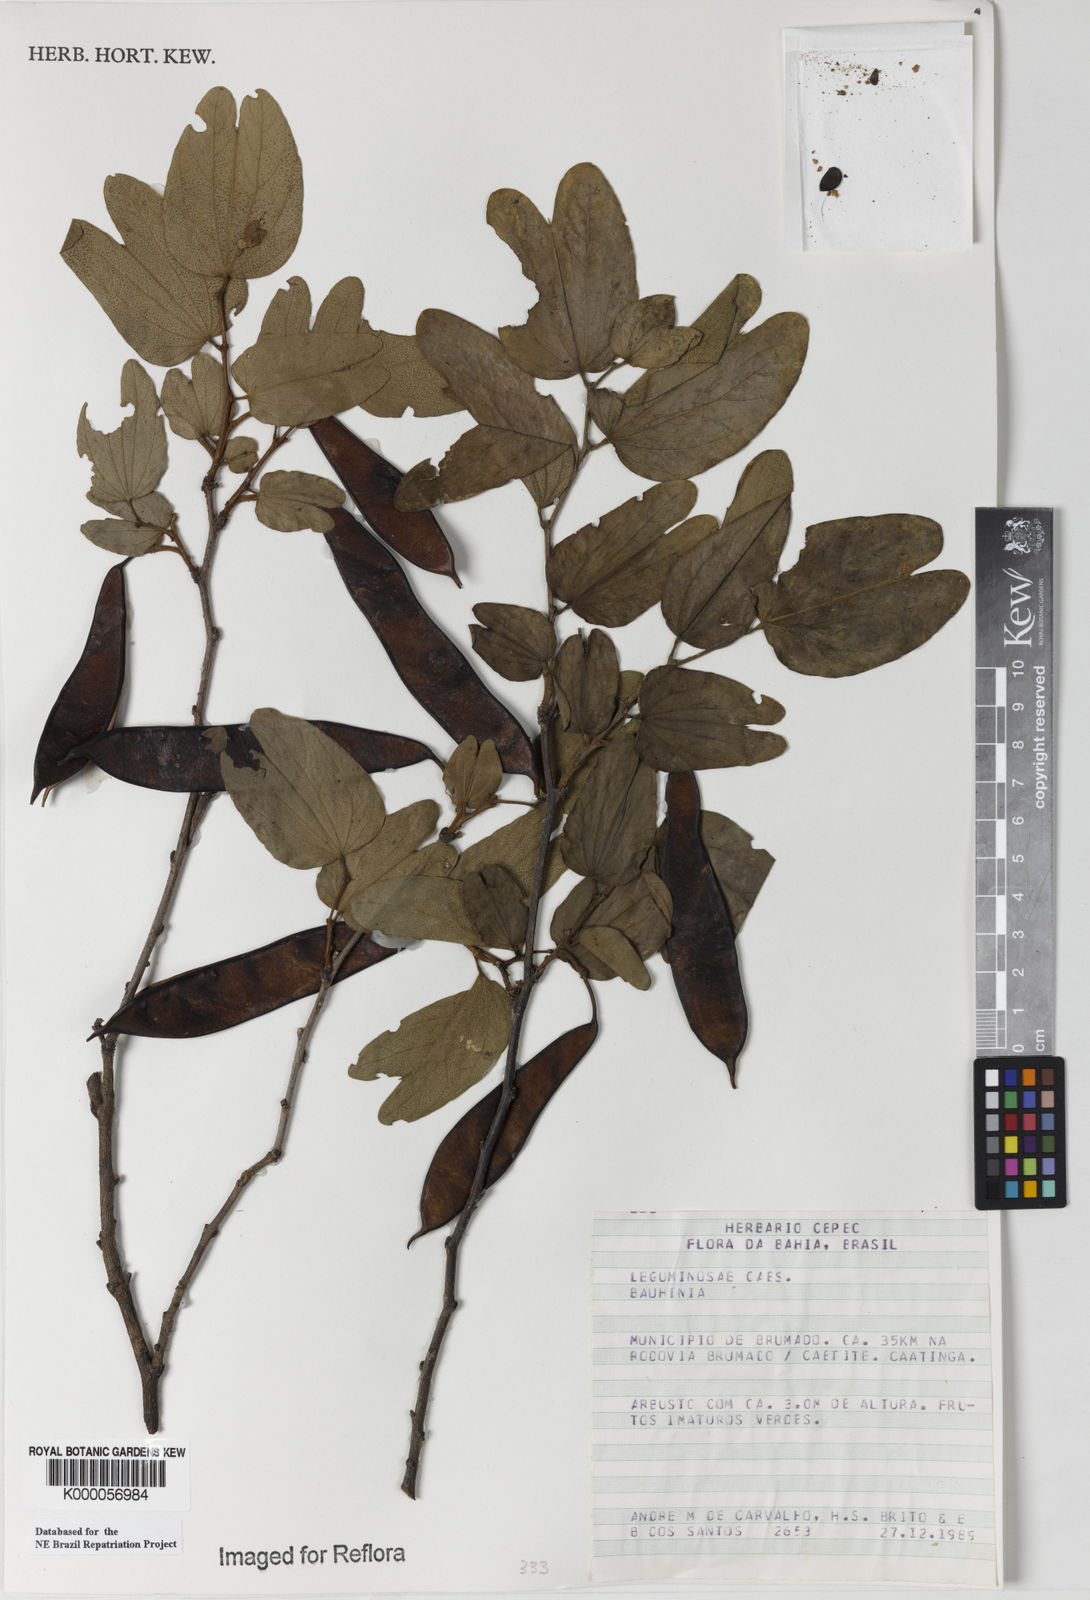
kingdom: Plantae
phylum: Tracheophyta
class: Magnoliopsida
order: Fabales
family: Fabaceae
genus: Bauhinia
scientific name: Bauhinia aculeata
